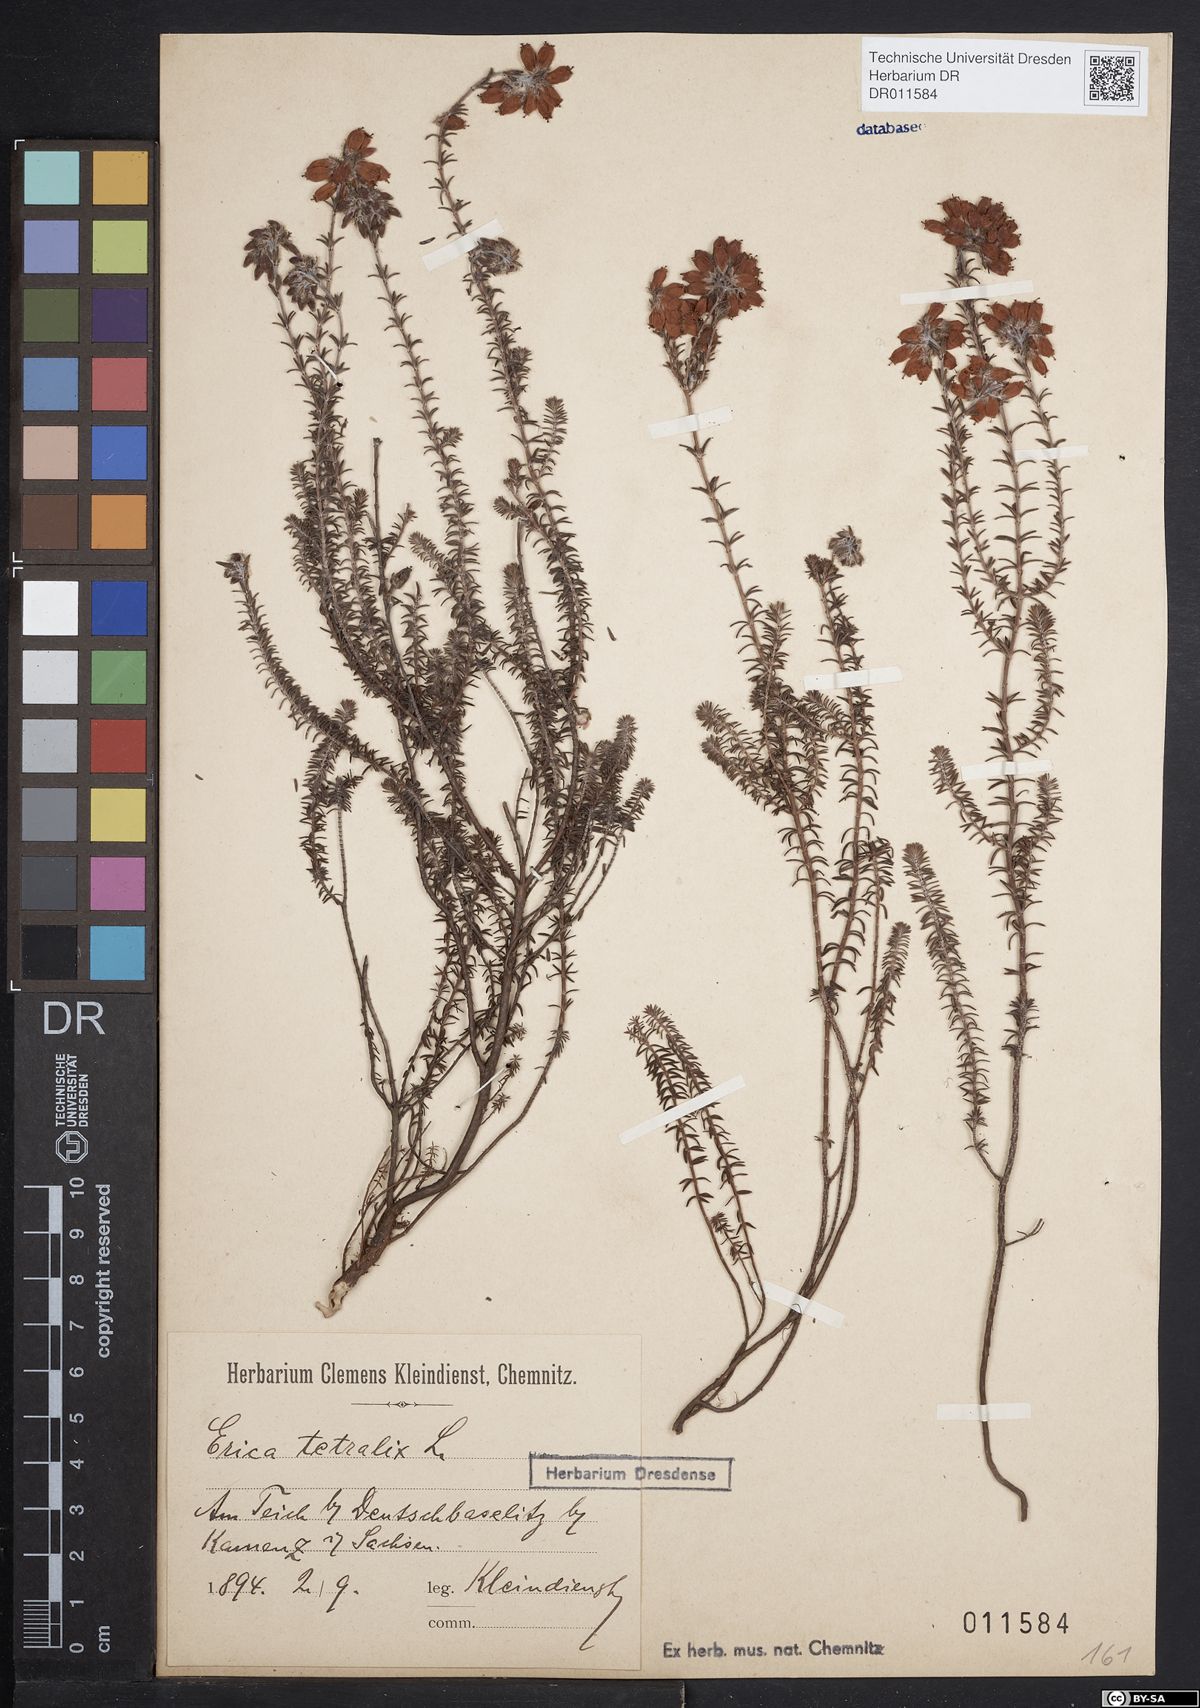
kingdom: Plantae
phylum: Tracheophyta
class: Magnoliopsida
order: Ericales
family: Ericaceae
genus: Erica
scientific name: Erica tetralix
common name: Cross-leaved heath
